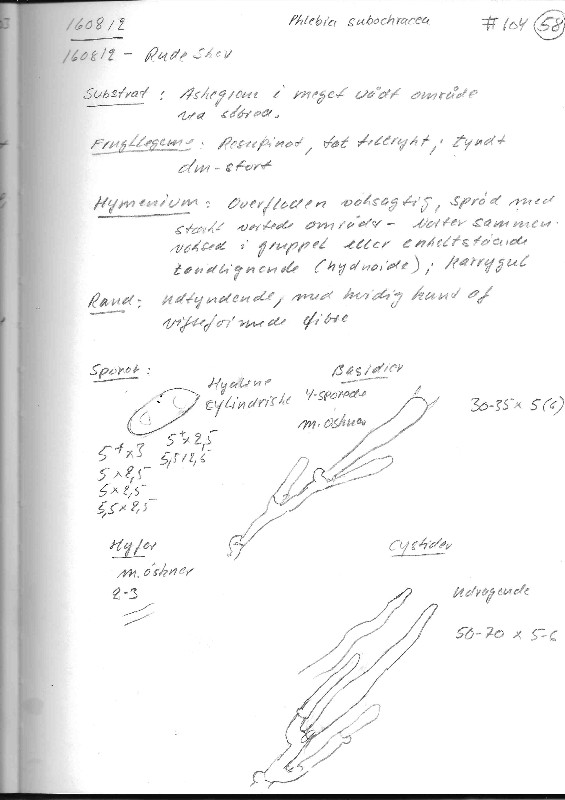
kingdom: Fungi
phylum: Basidiomycota
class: Agaricomycetes
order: Polyporales
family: Meruliaceae
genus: Phlebiodontia
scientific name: Phlebiodontia subochracea
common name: svovl-åresvamp
